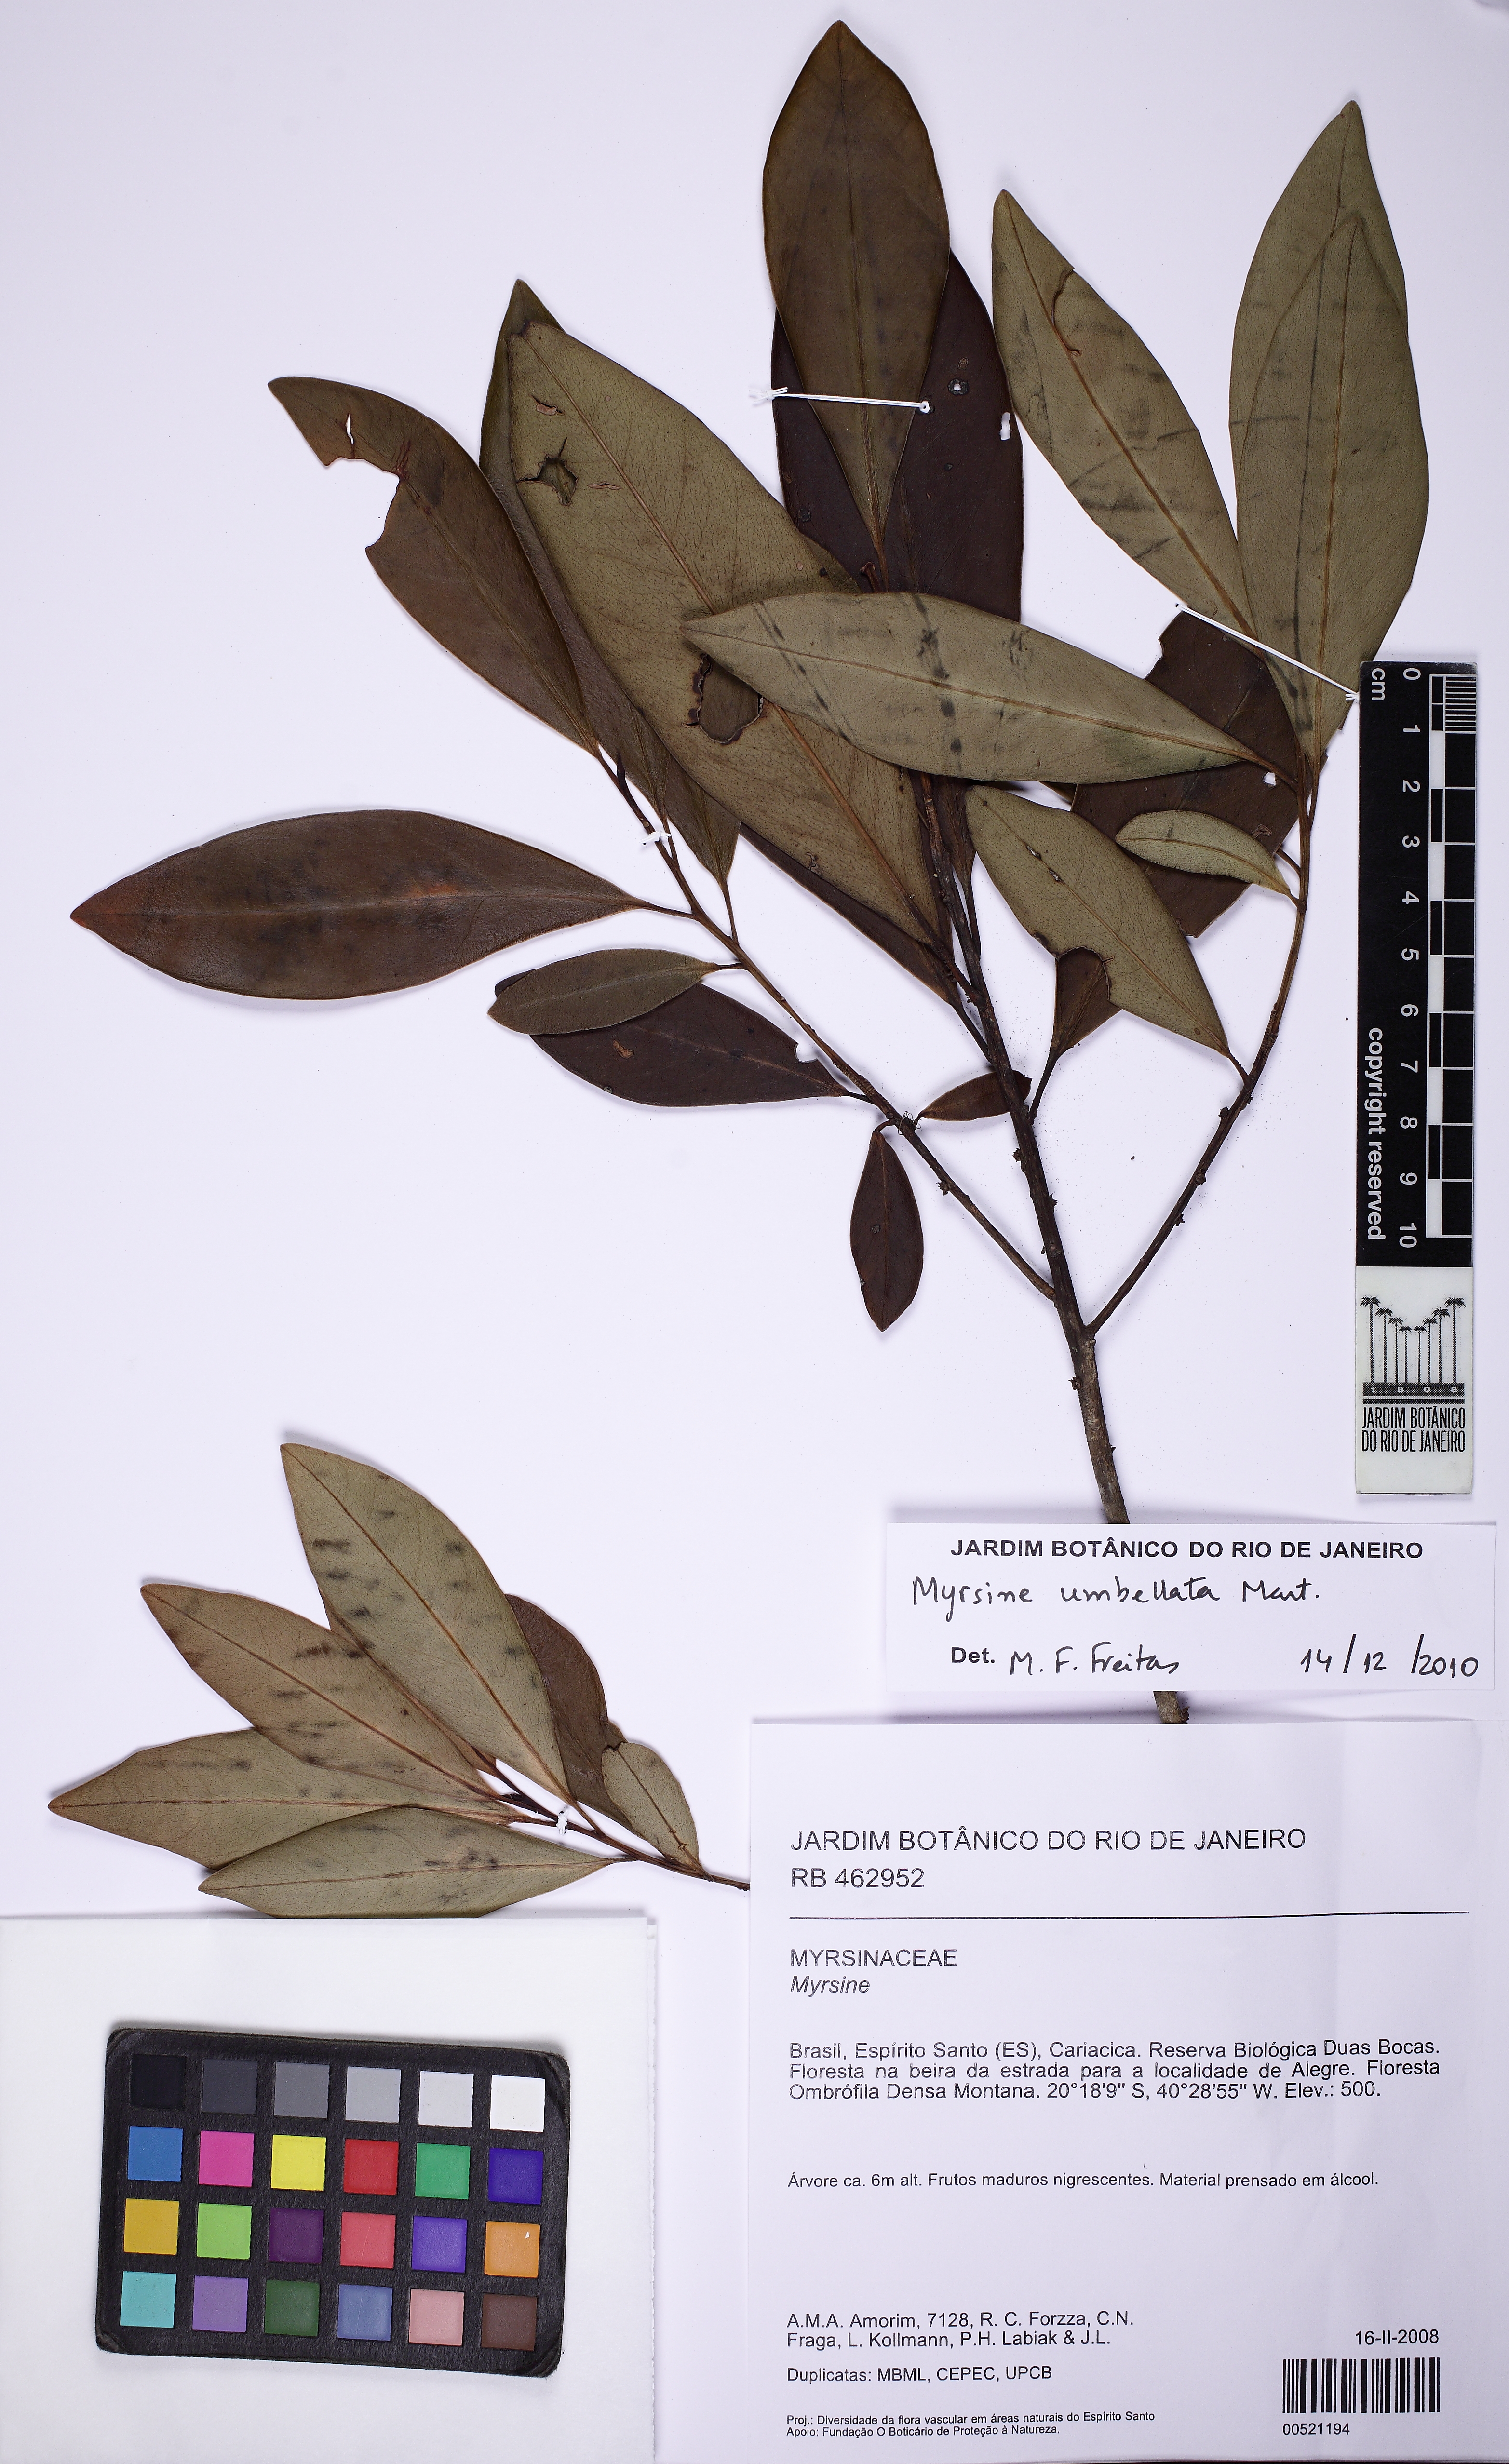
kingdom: Plantae
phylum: Tracheophyta
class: Magnoliopsida
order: Ericales
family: Primulaceae
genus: Myrsine
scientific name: Myrsine umbellata
